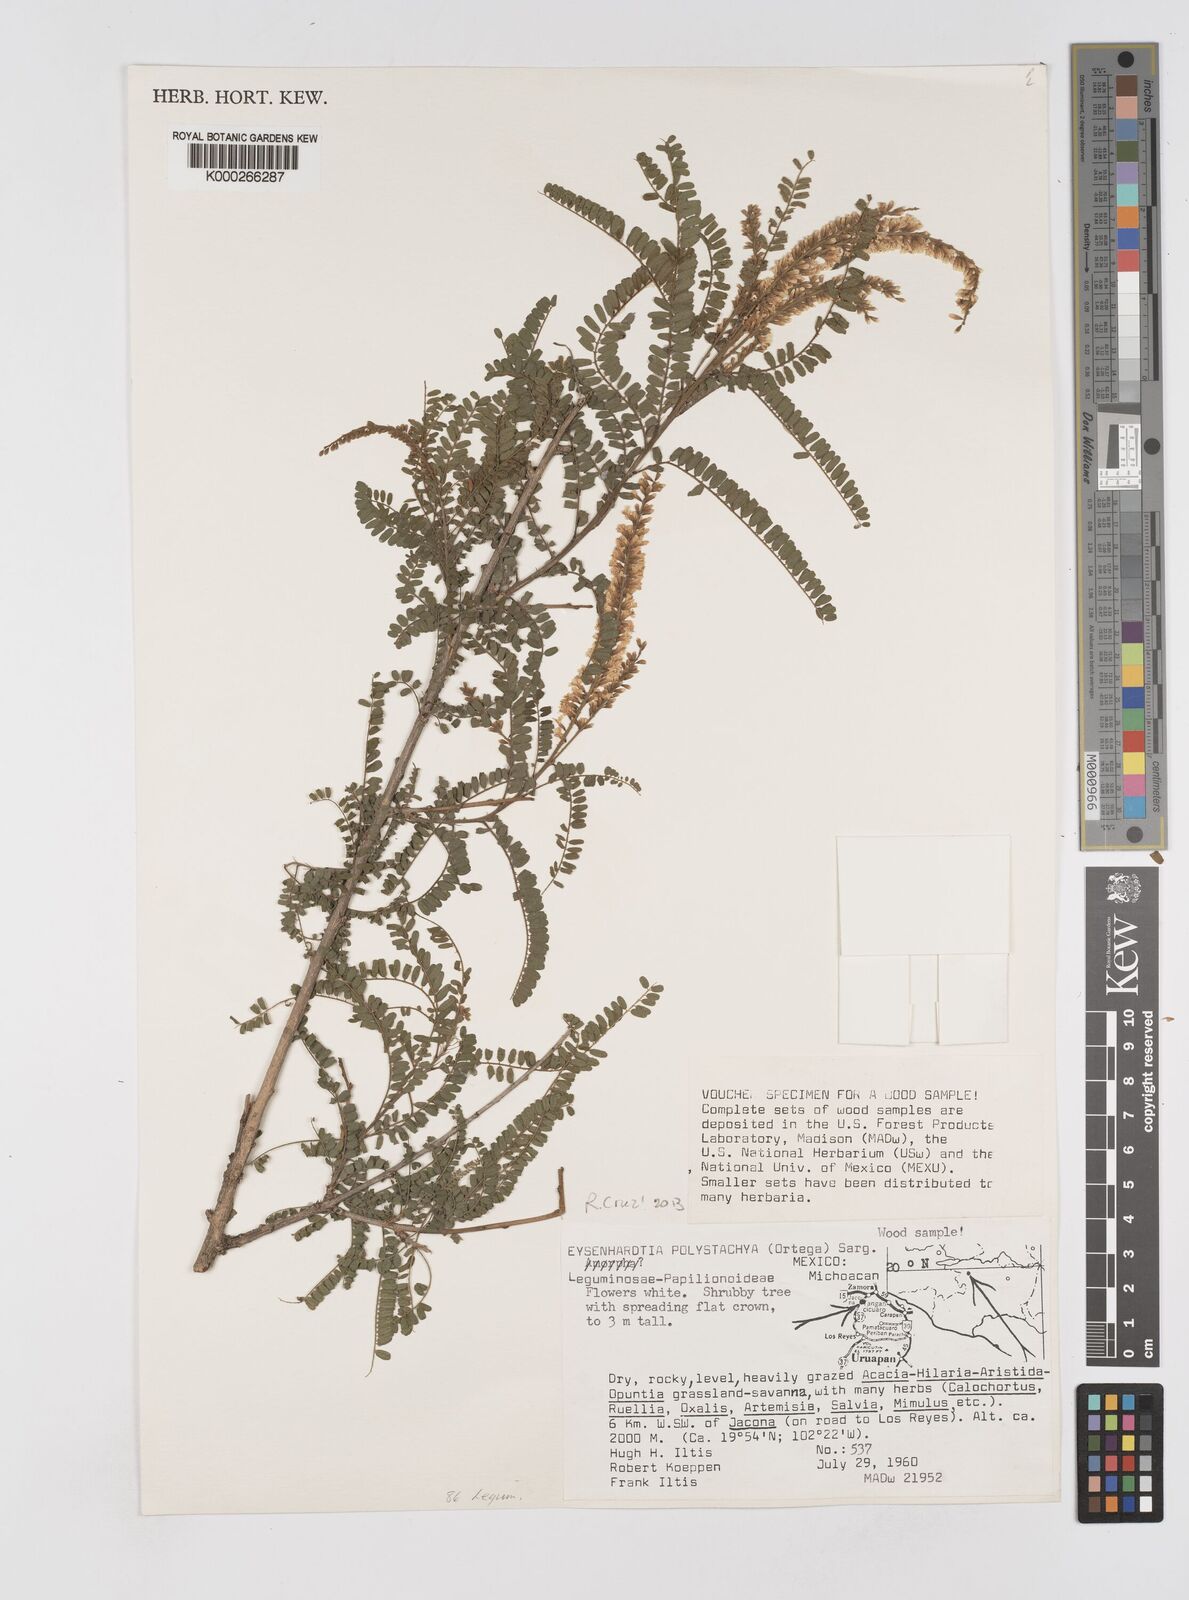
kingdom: Plantae
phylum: Tracheophyta
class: Magnoliopsida
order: Fabales
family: Fabaceae
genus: Eysenhardtia
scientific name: Eysenhardtia polystachya
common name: Kidneywood
